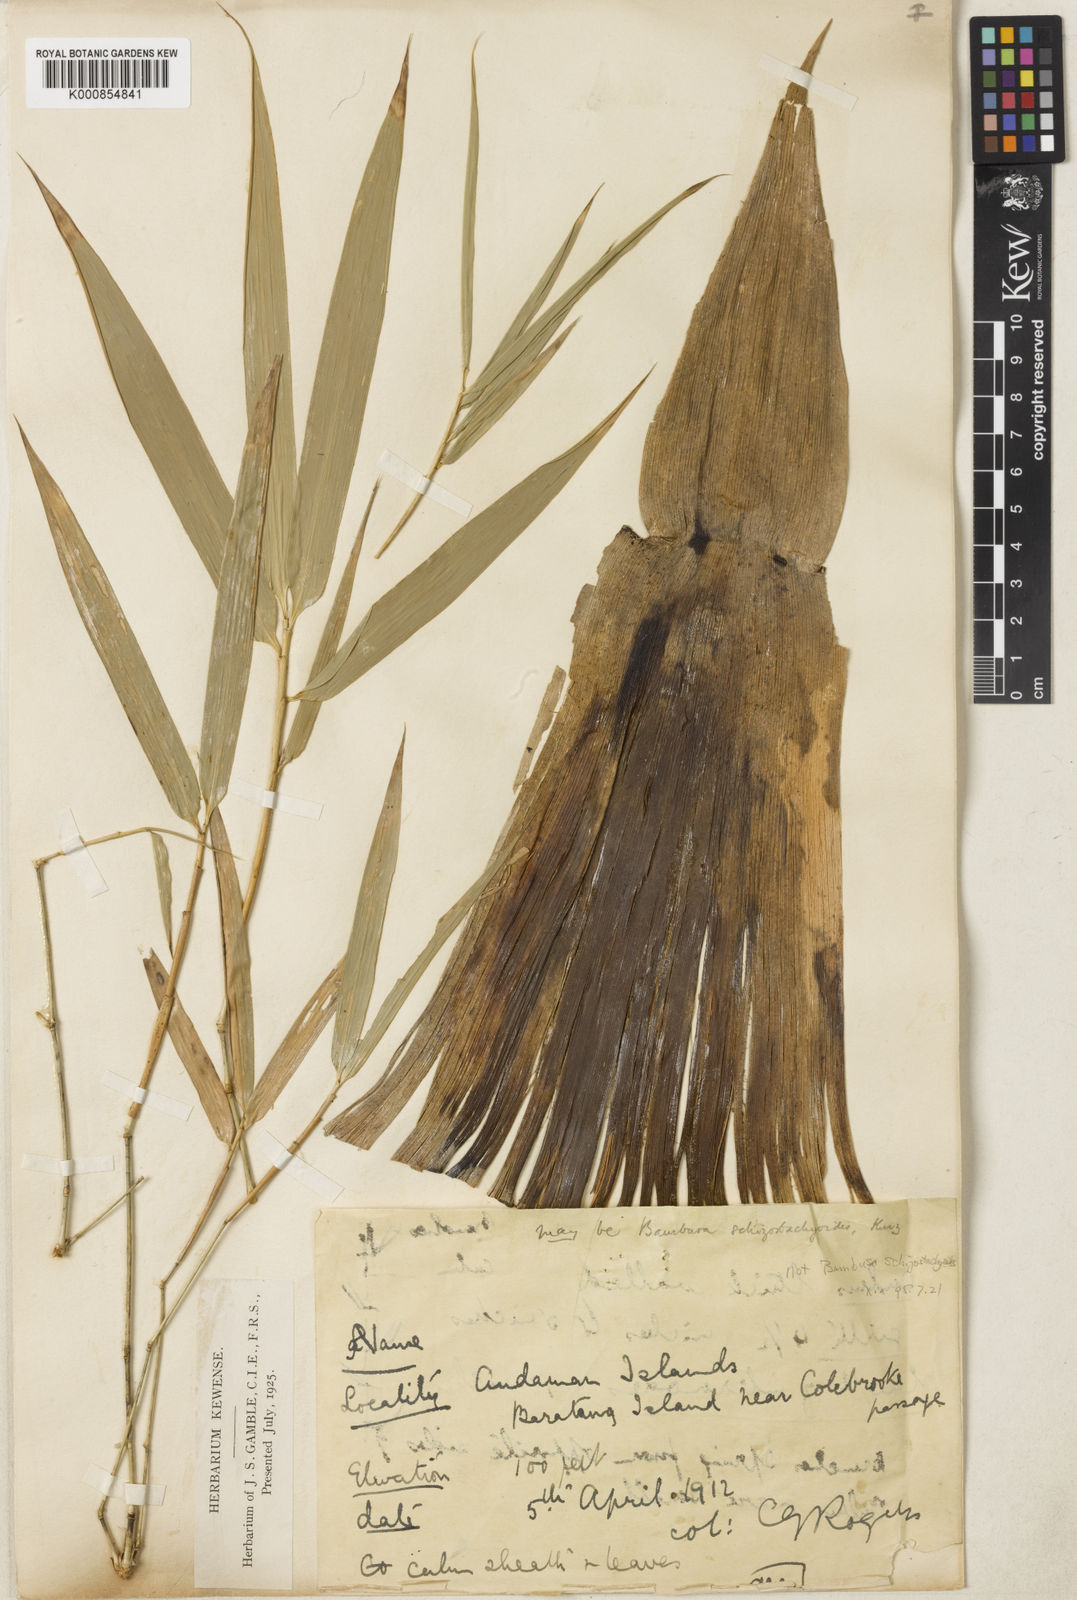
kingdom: Plantae
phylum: Tracheophyta
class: Liliopsida
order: Poales
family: Poaceae
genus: Pseudobambusa
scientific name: Pseudobambusa schizostachyoides
